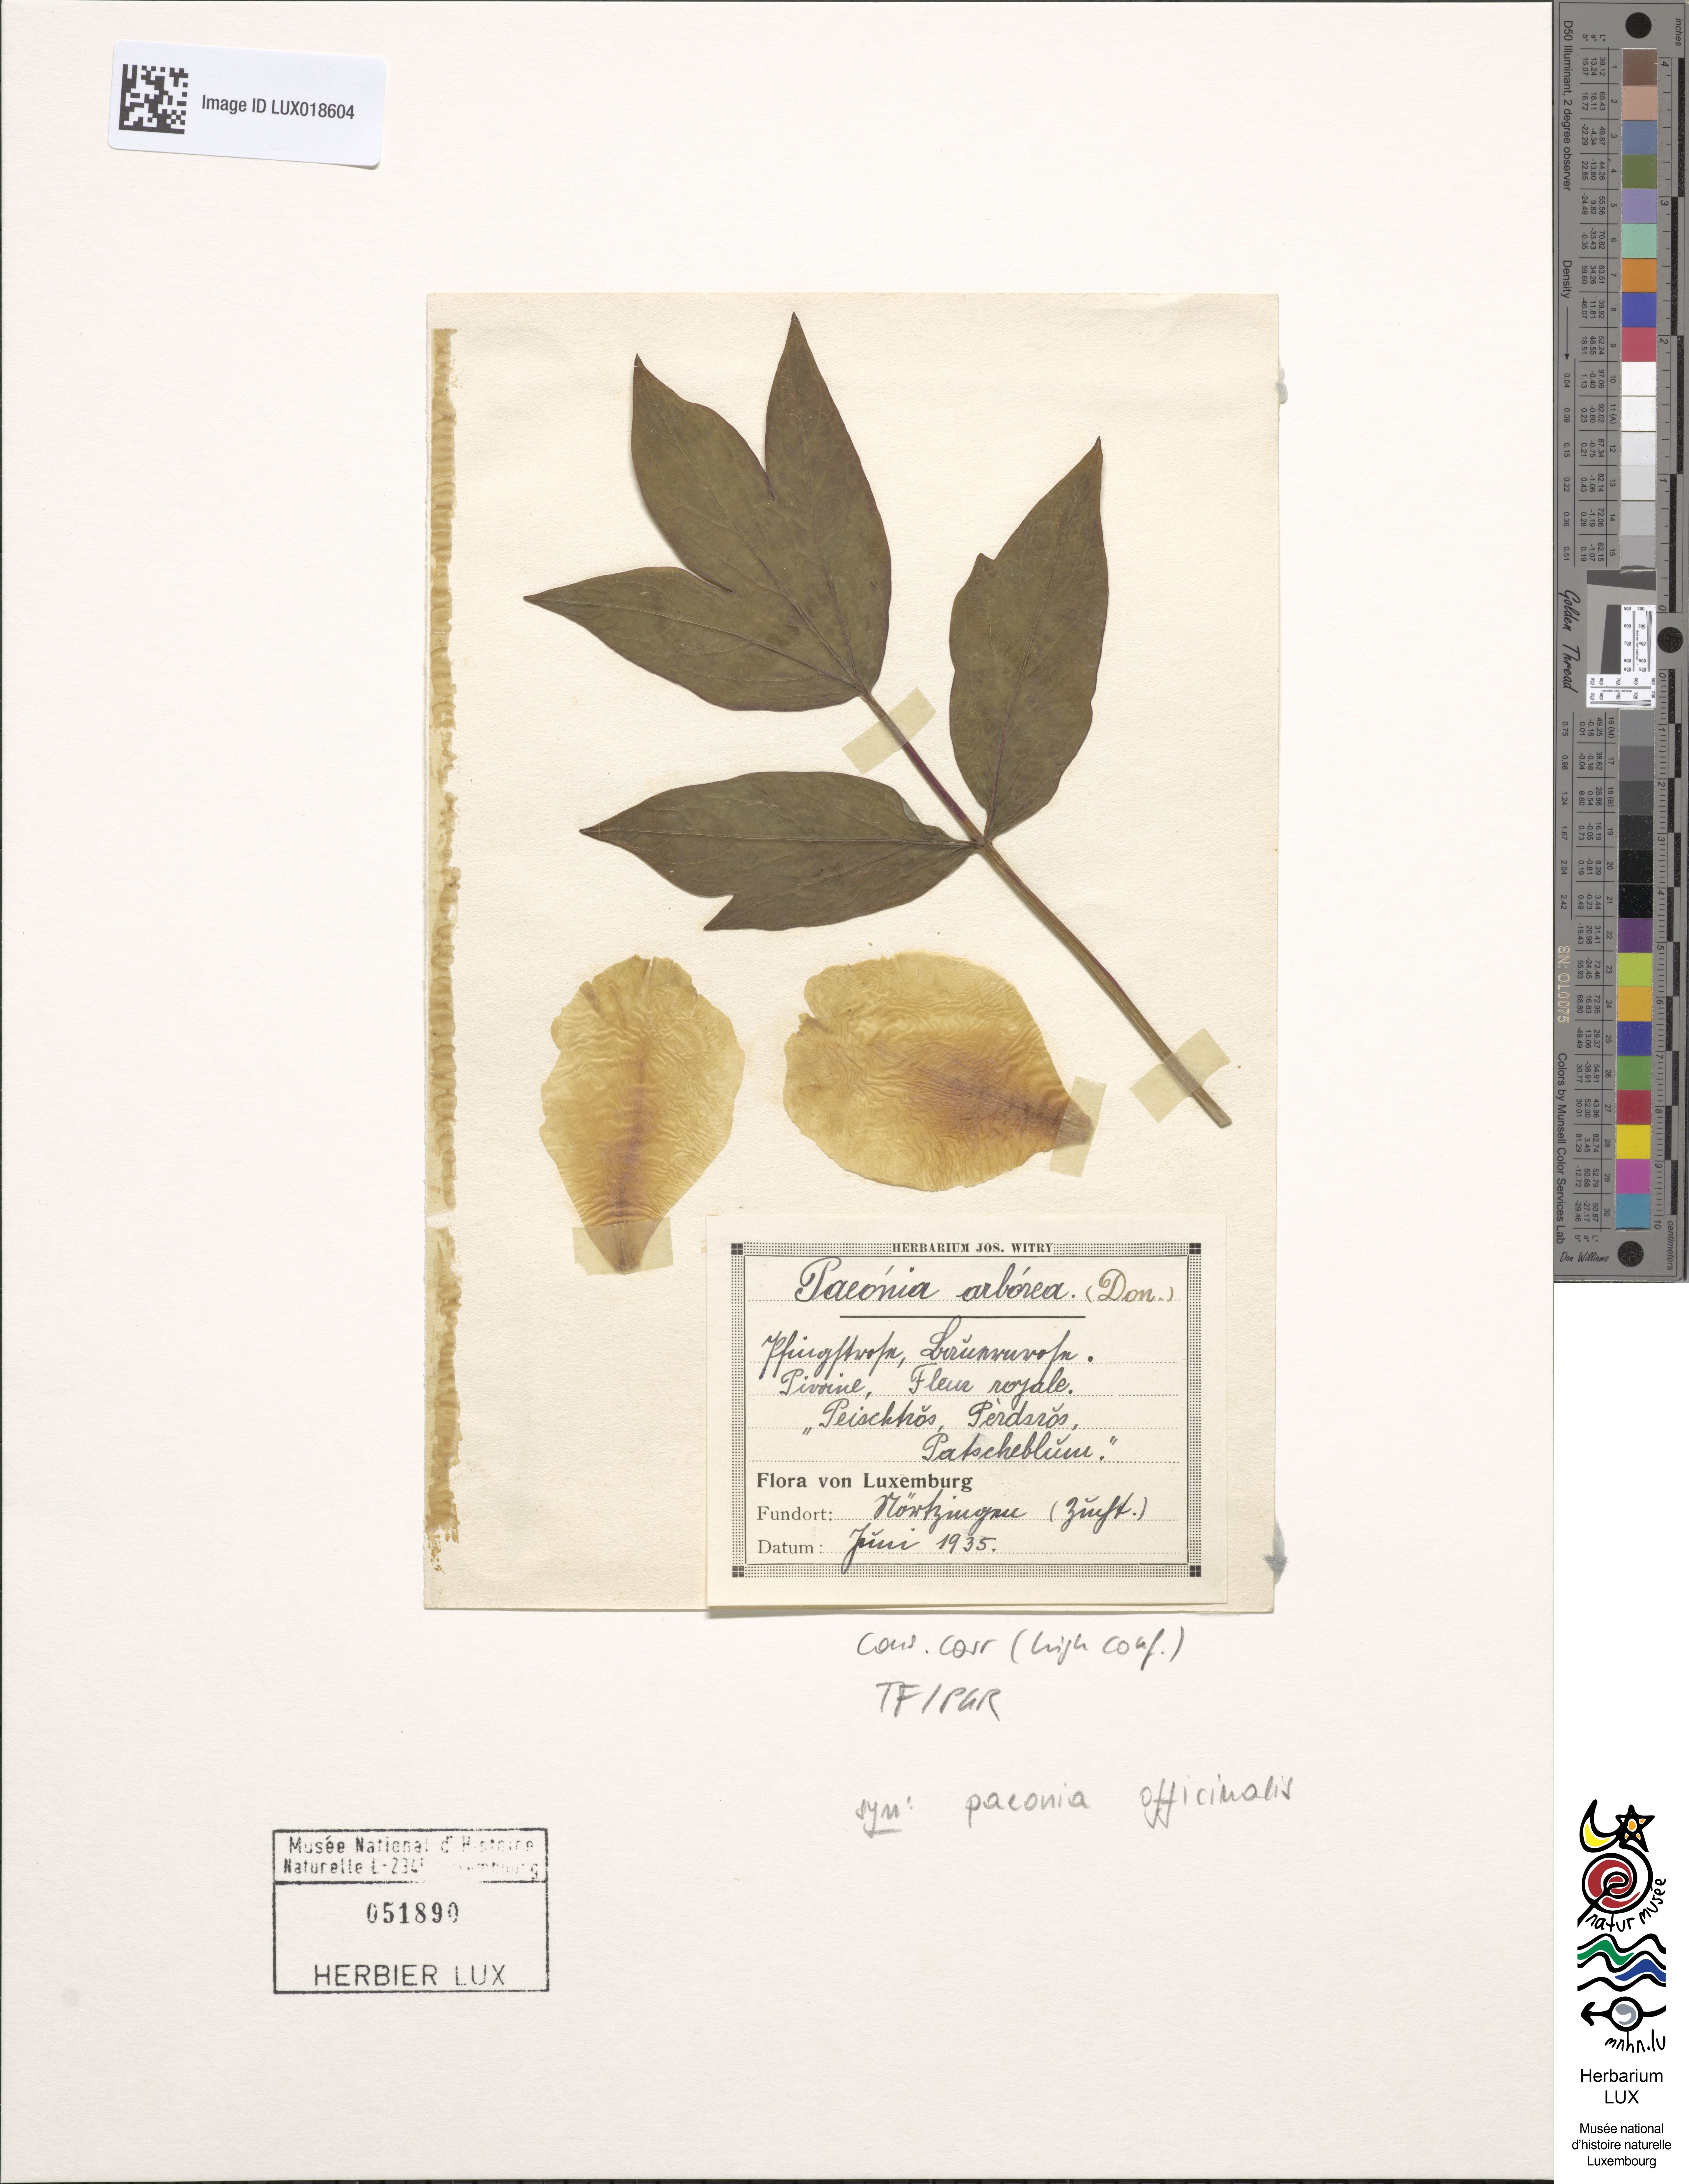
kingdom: Plantae
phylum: Tracheophyta
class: Magnoliopsida
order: Saxifragales
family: Paeoniaceae
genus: Paeonia
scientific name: Paeonia officinalis
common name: Common peony
